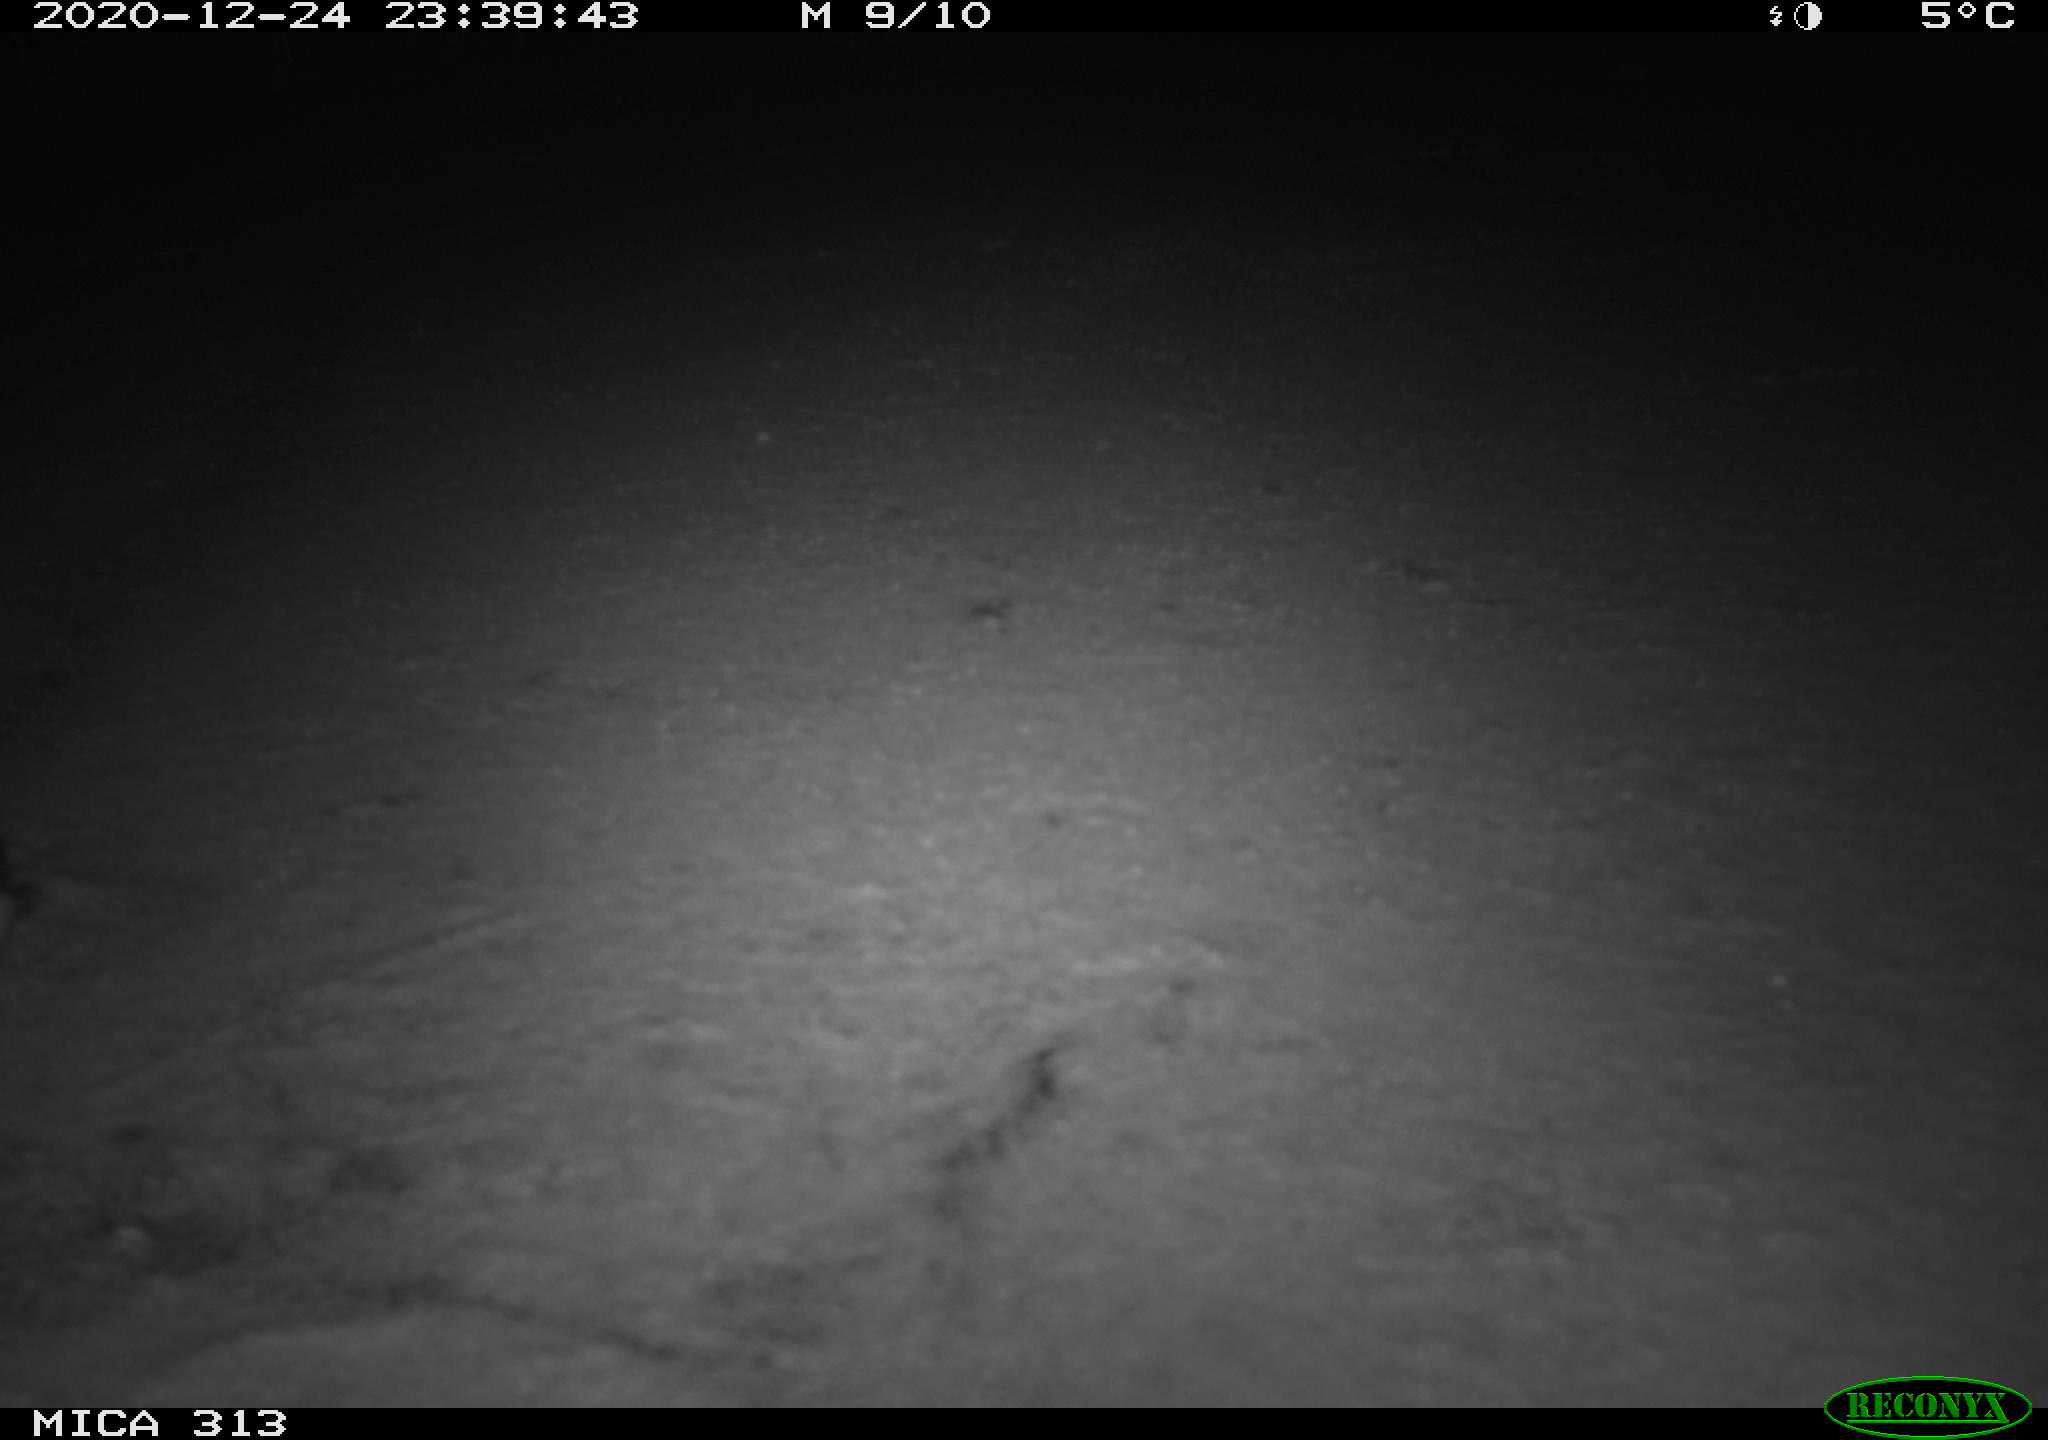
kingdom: Animalia
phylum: Chordata
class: Aves
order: Gruiformes
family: Rallidae
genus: Gallinula
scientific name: Gallinula chloropus
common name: Common moorhen
